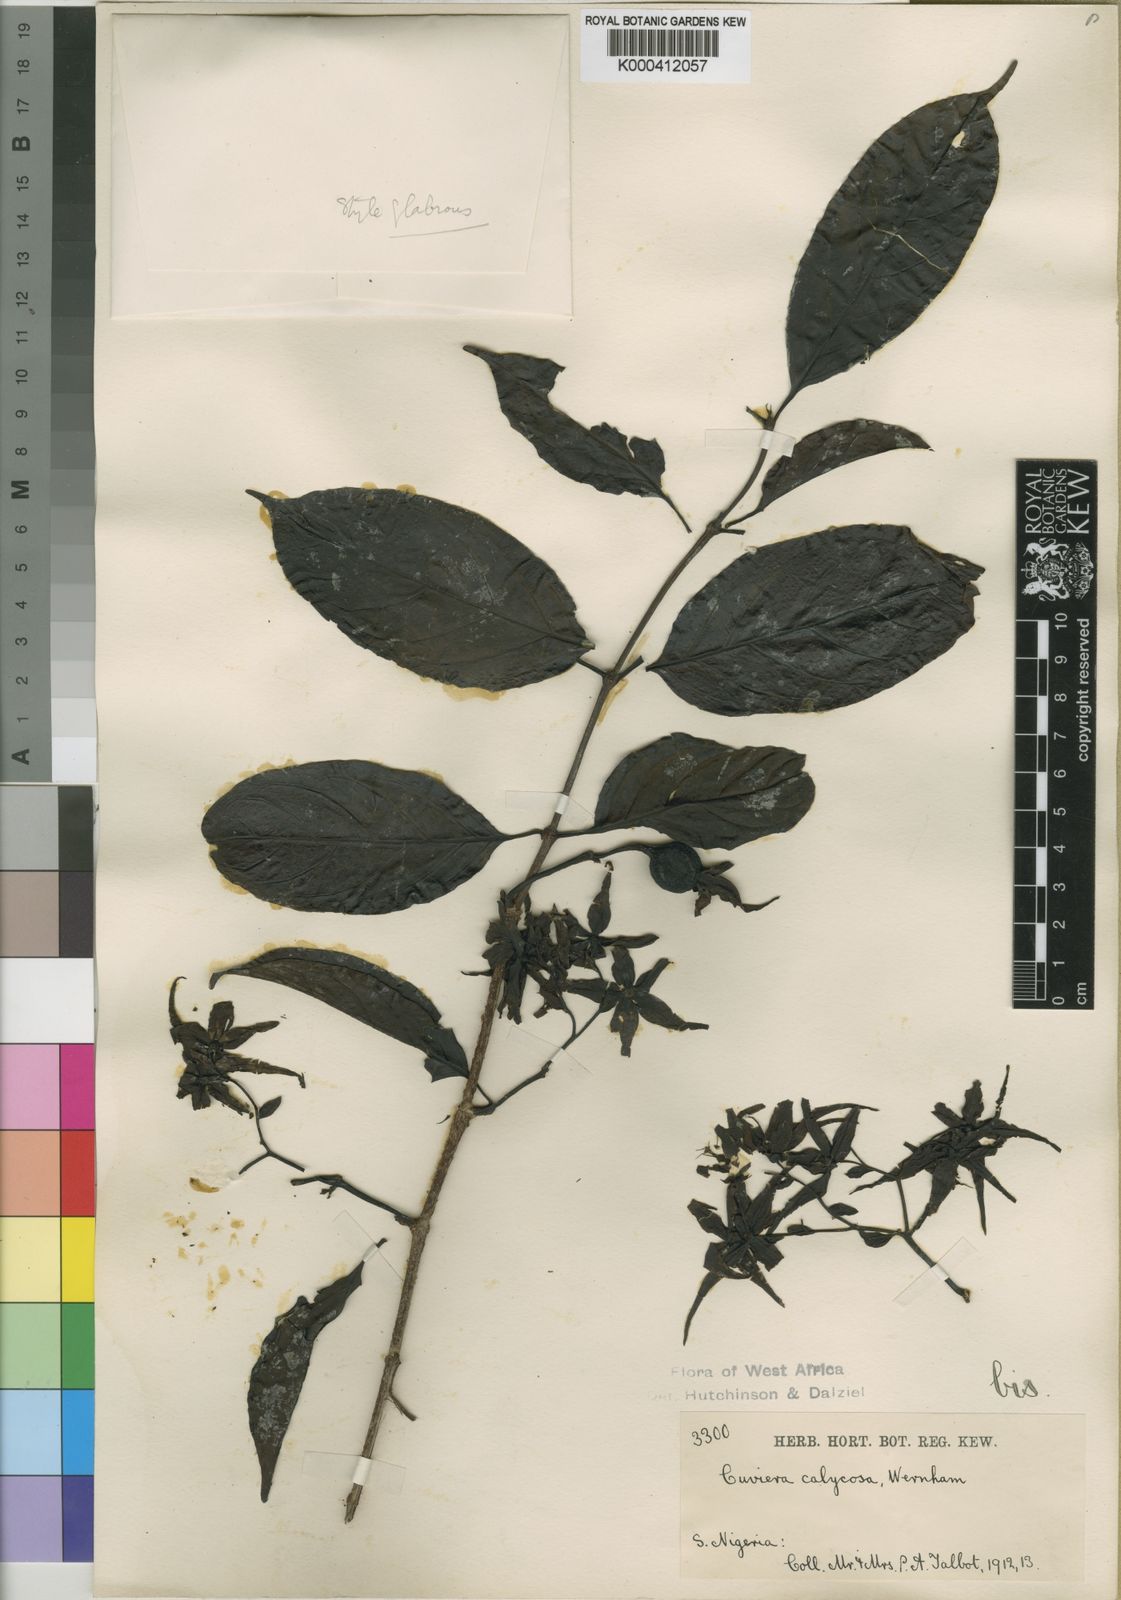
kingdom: Plantae
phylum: Tracheophyta
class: Magnoliopsida
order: Gentianales
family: Rubiaceae
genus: Cuviera
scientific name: Cuviera calycosa
